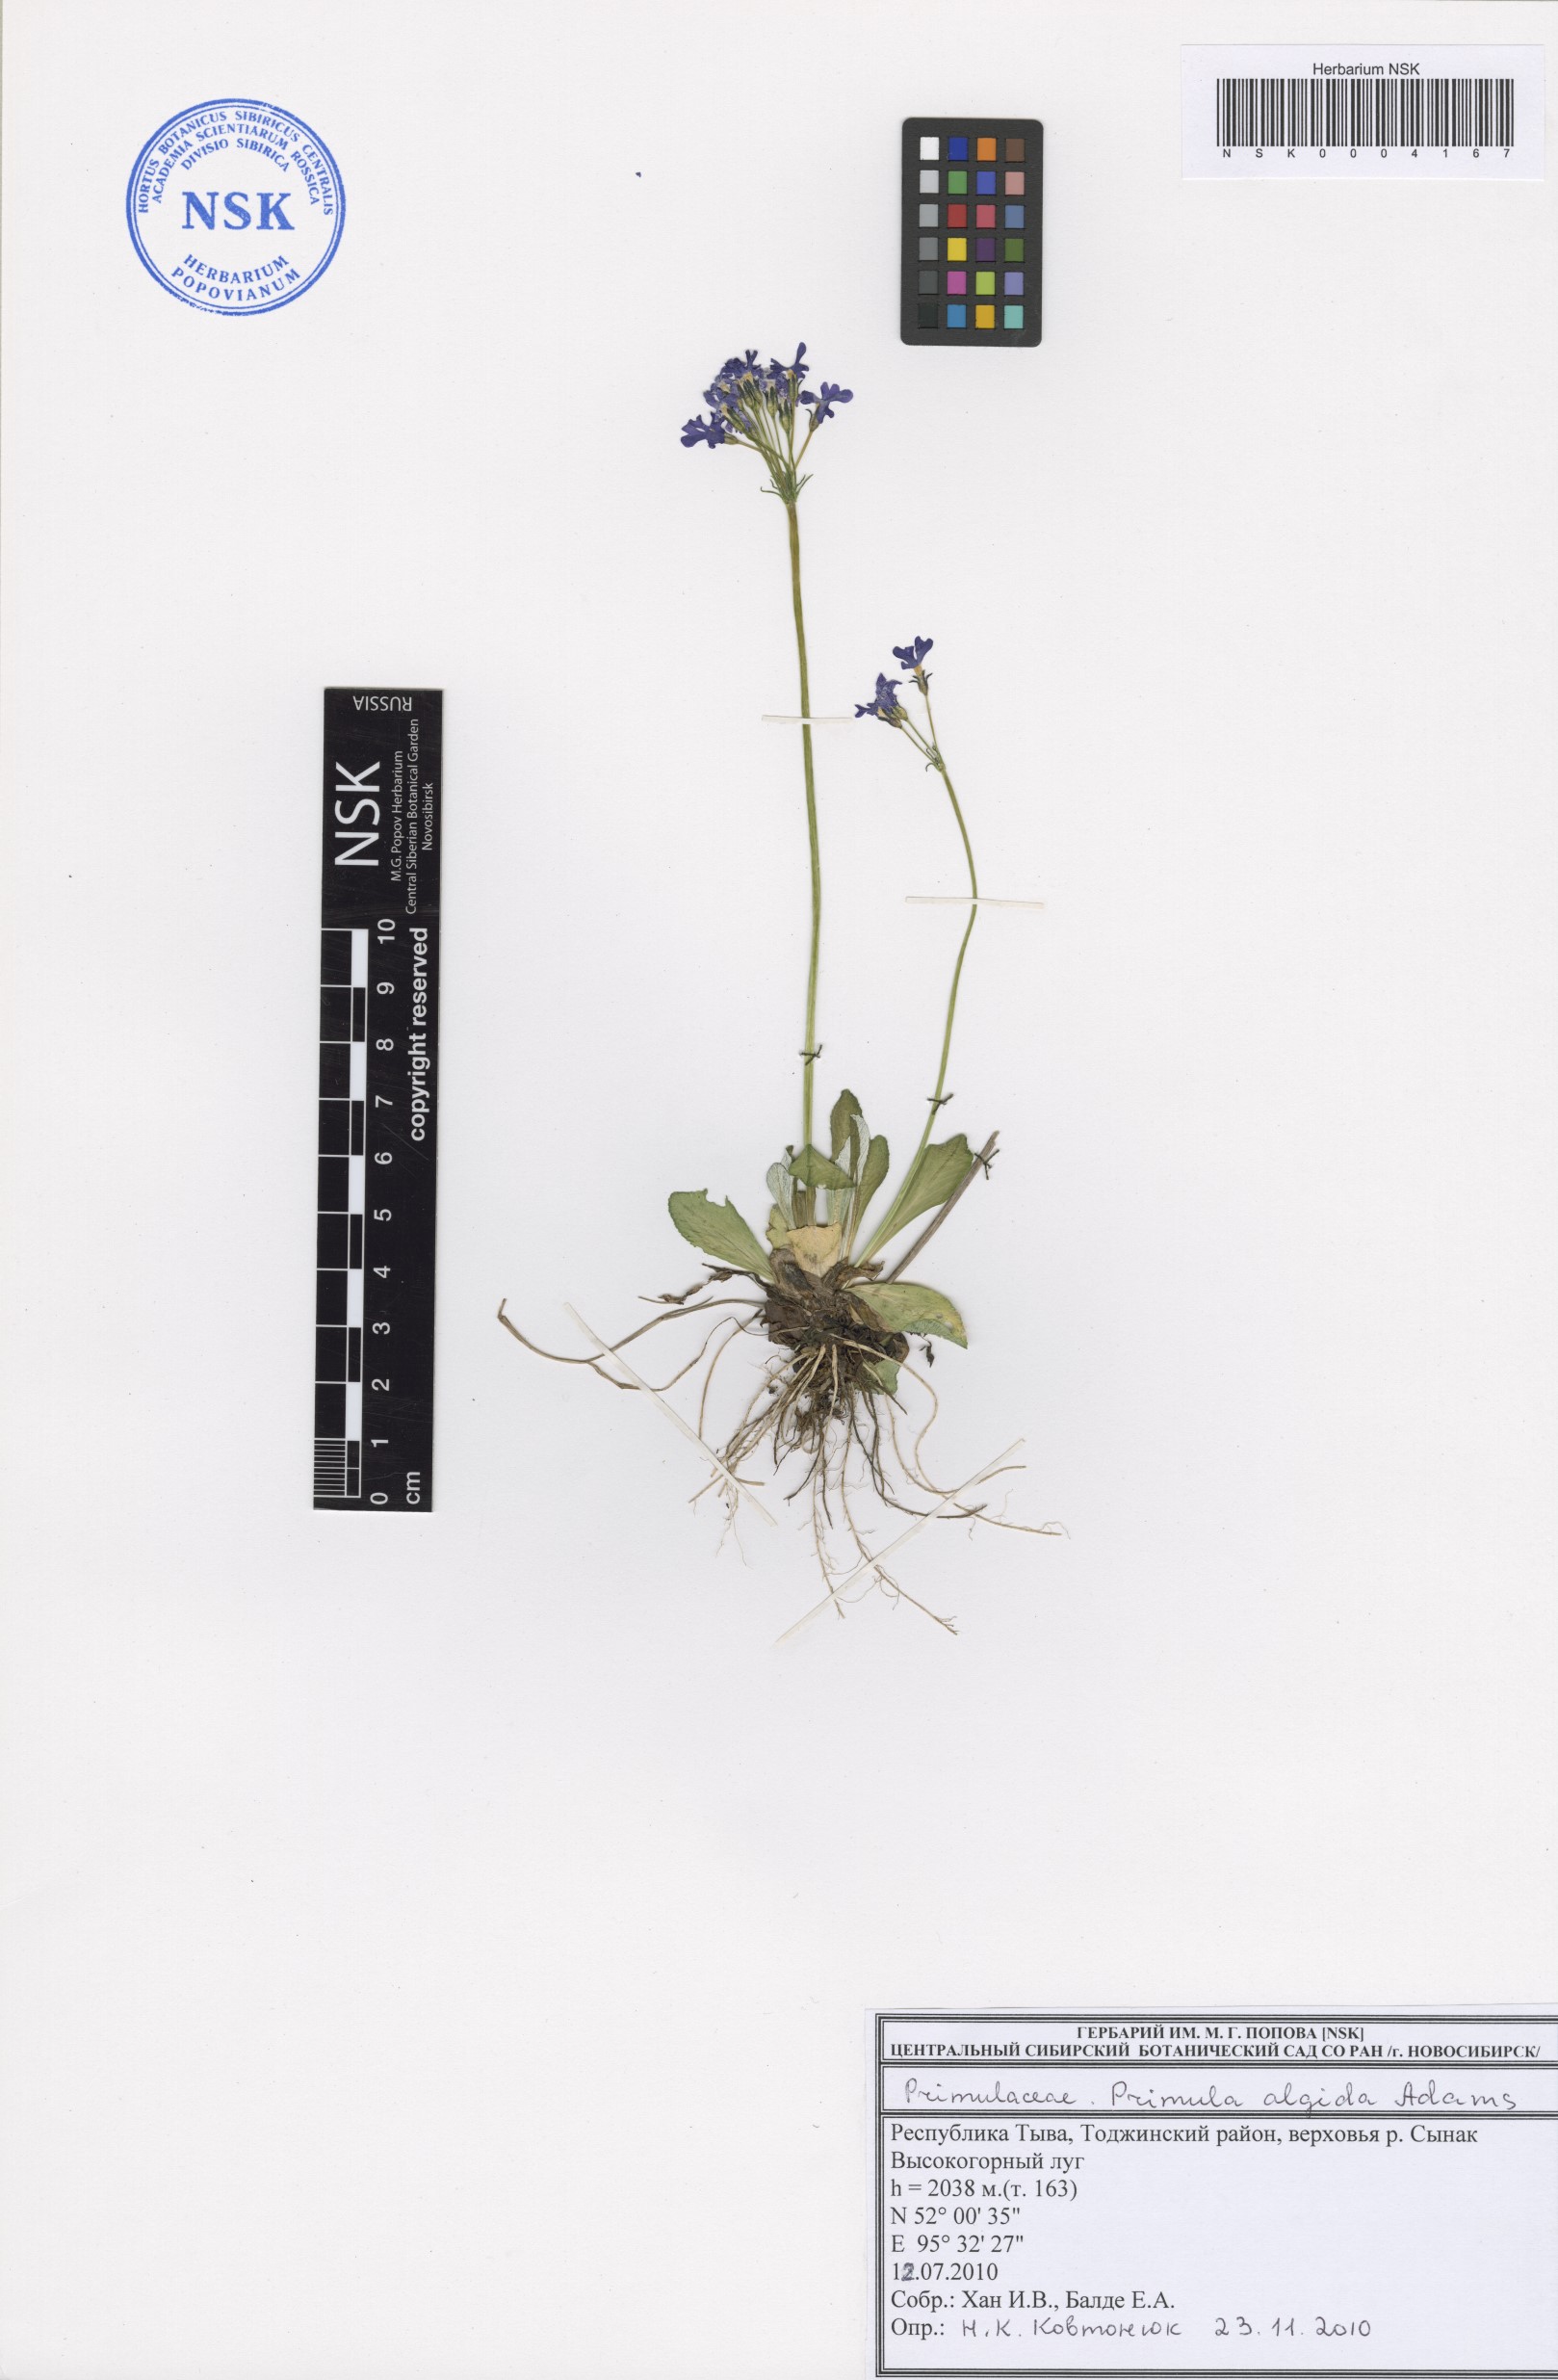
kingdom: Plantae
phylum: Tracheophyta
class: Magnoliopsida
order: Ericales
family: Primulaceae
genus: Primula
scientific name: Primula algida
